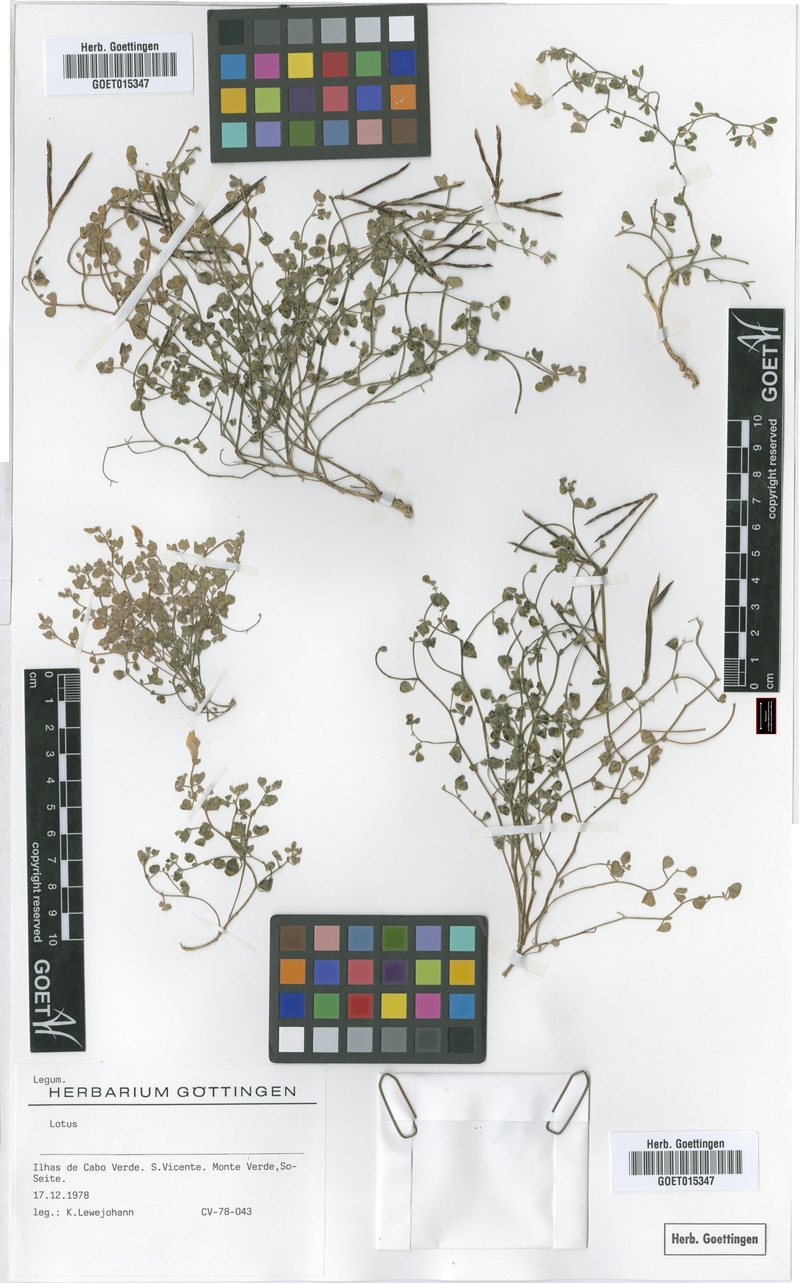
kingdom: Plantae
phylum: Tracheophyta
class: Magnoliopsida
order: Fabales
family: Fabaceae
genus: Lotus
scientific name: Lotus coronillaefolius
